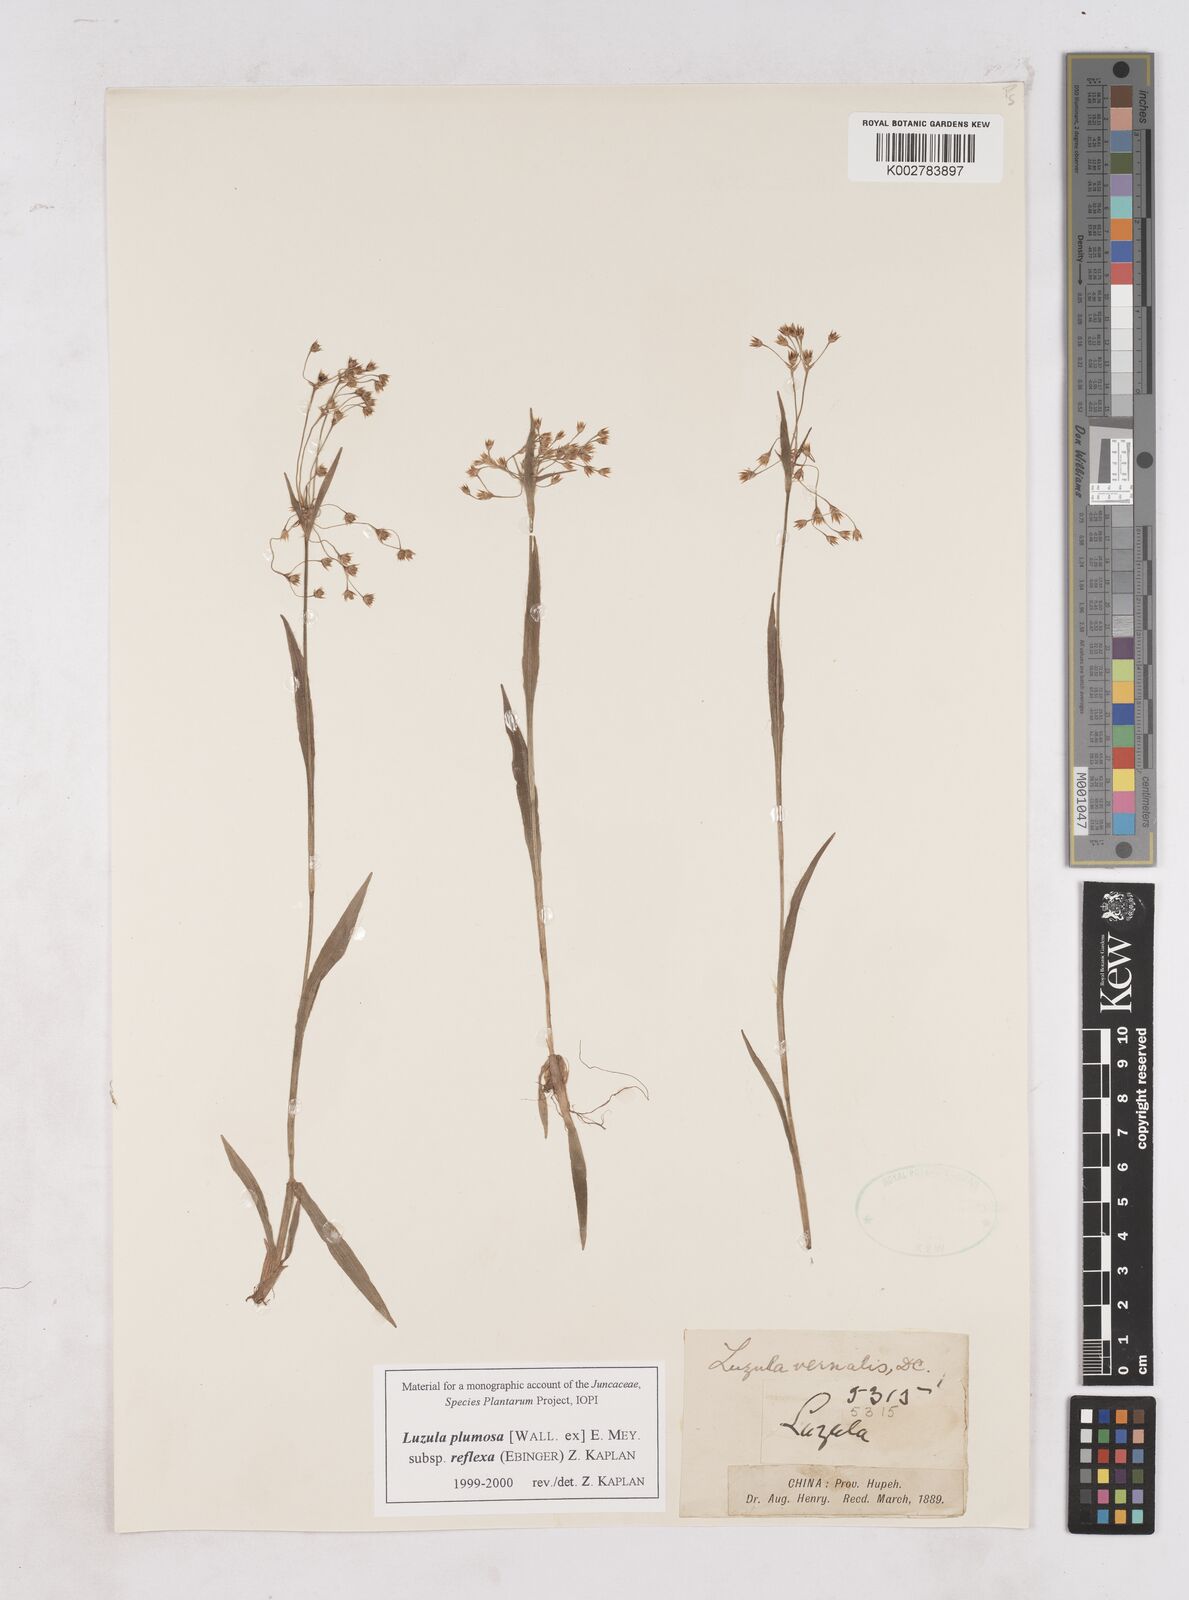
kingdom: Plantae
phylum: Tracheophyta
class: Liliopsida
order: Poales
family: Juncaceae
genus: Luzula
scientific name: Luzula plumosa
